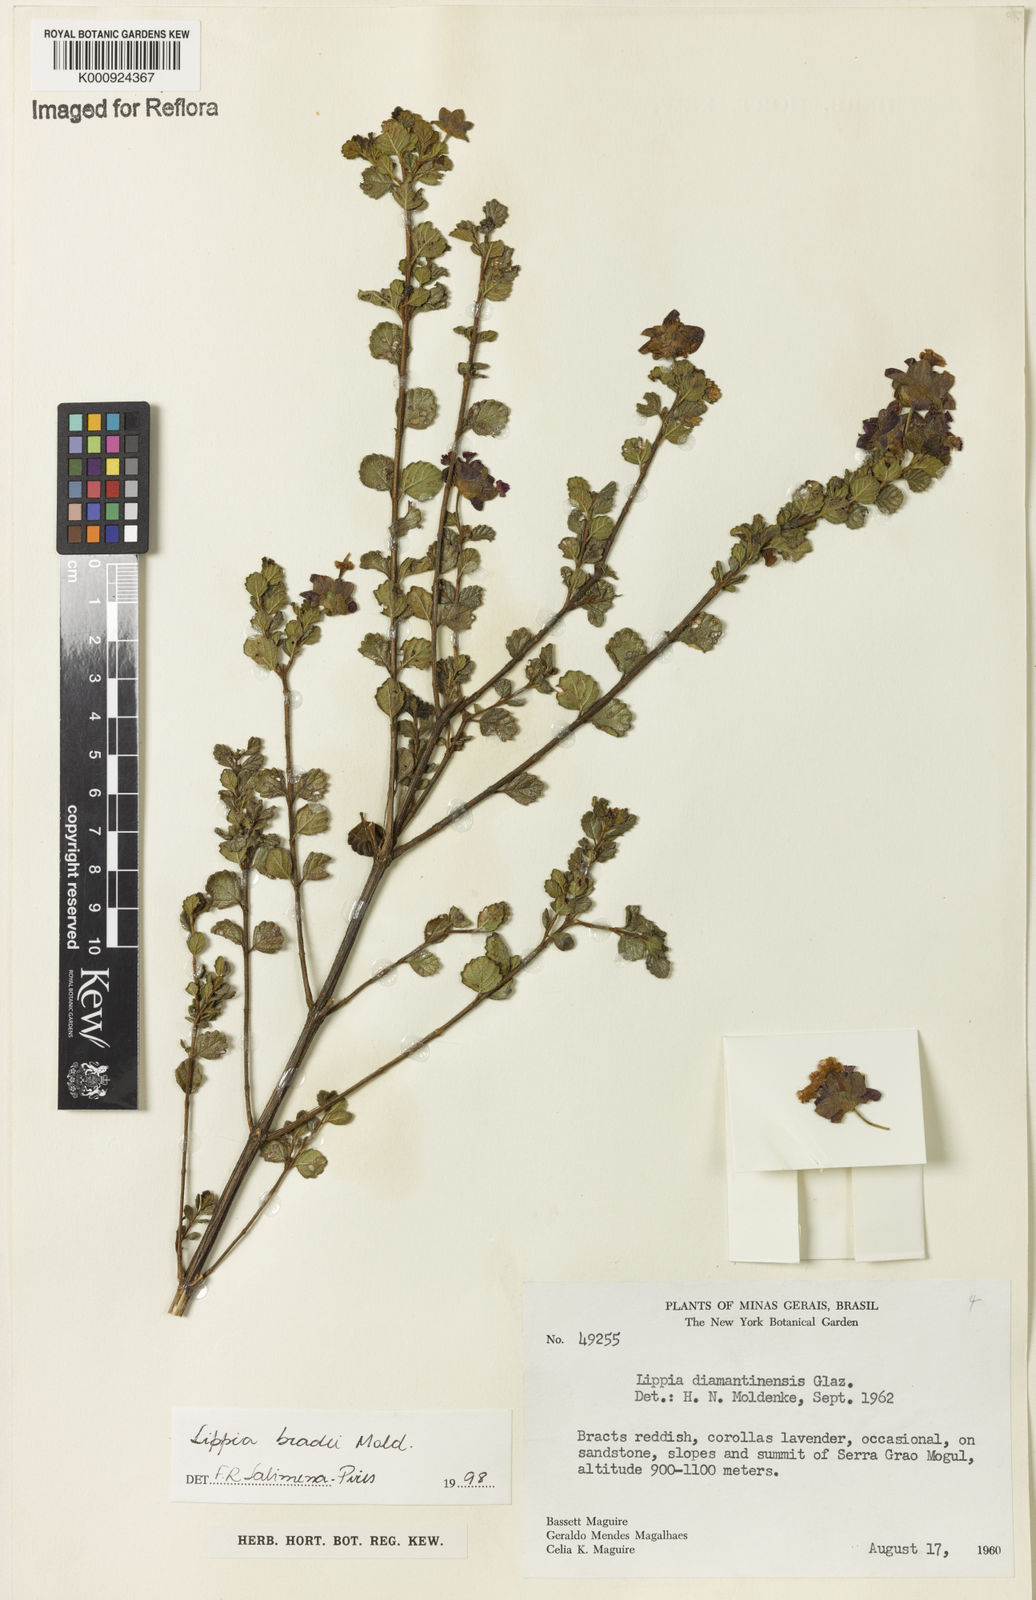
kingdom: Plantae
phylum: Tracheophyta
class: Magnoliopsida
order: Lamiales
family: Verbenaceae
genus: Lippia
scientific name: Lippia bradei
